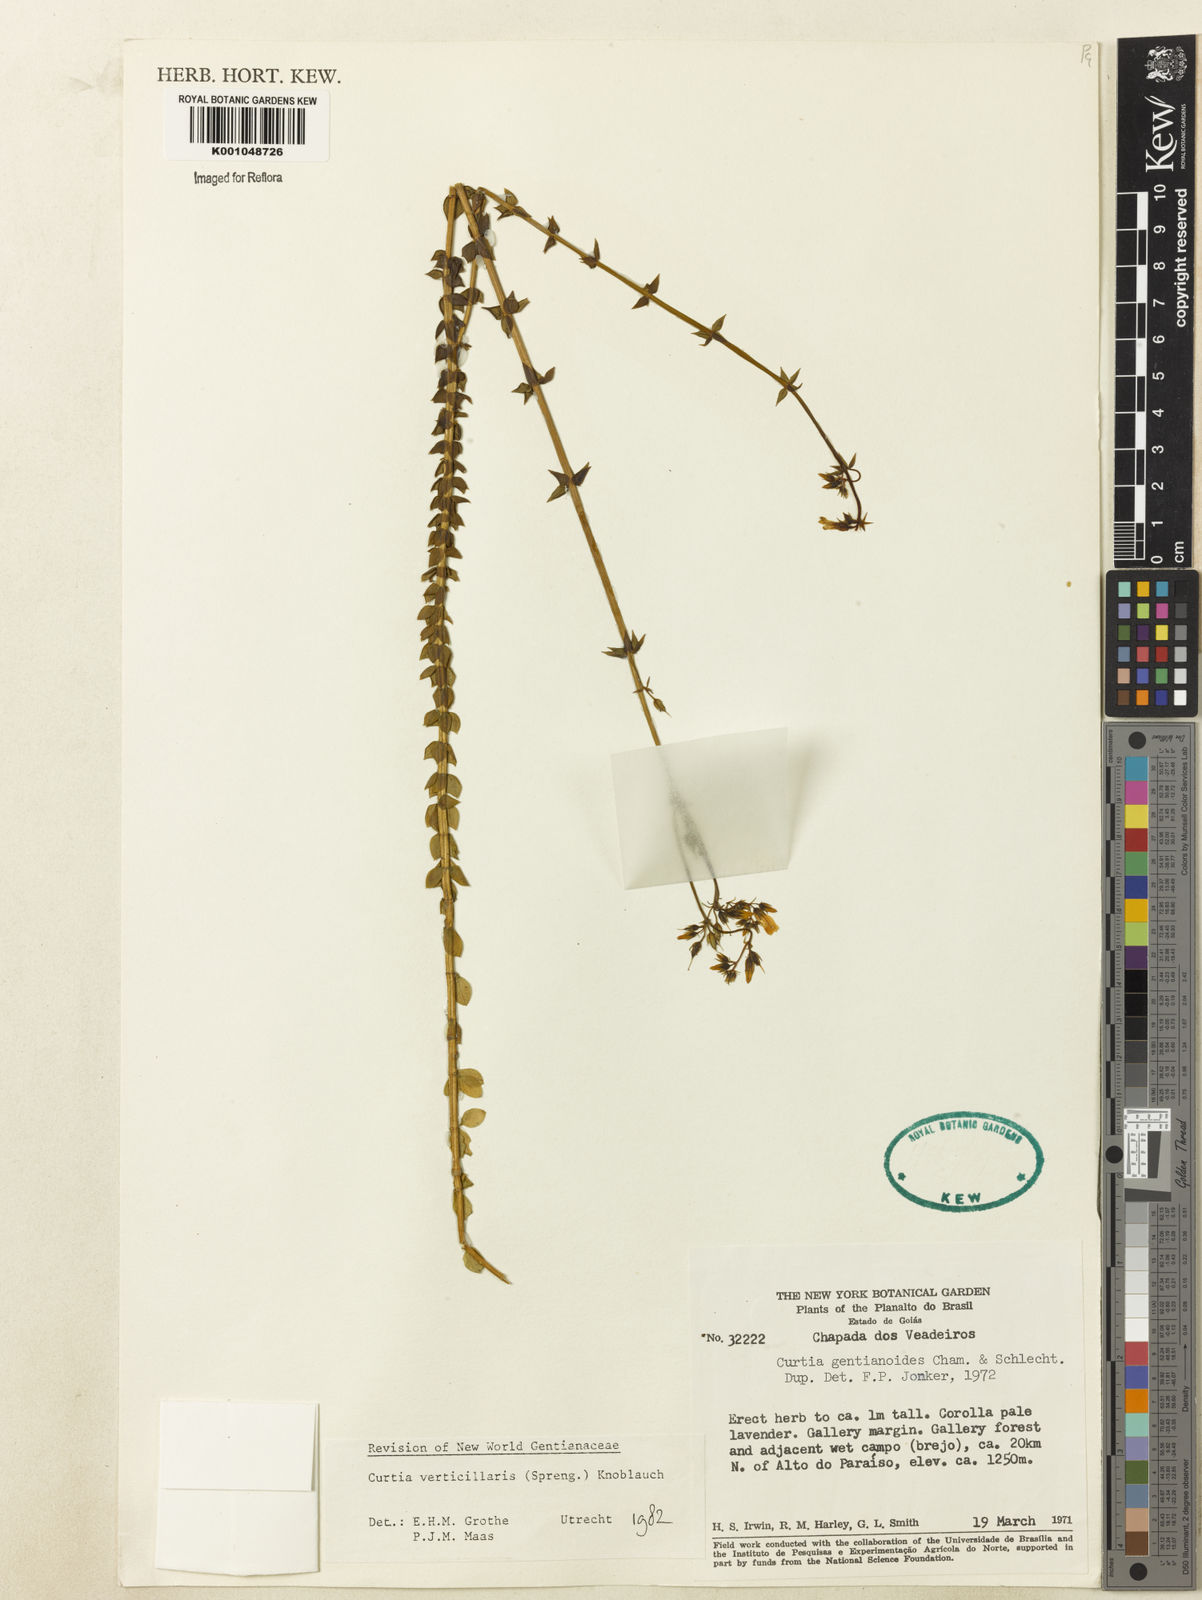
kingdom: Plantae
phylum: Tracheophyta
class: Magnoliopsida
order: Gentianales
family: Gentianaceae
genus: Curtia
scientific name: Curtia verticillaris
